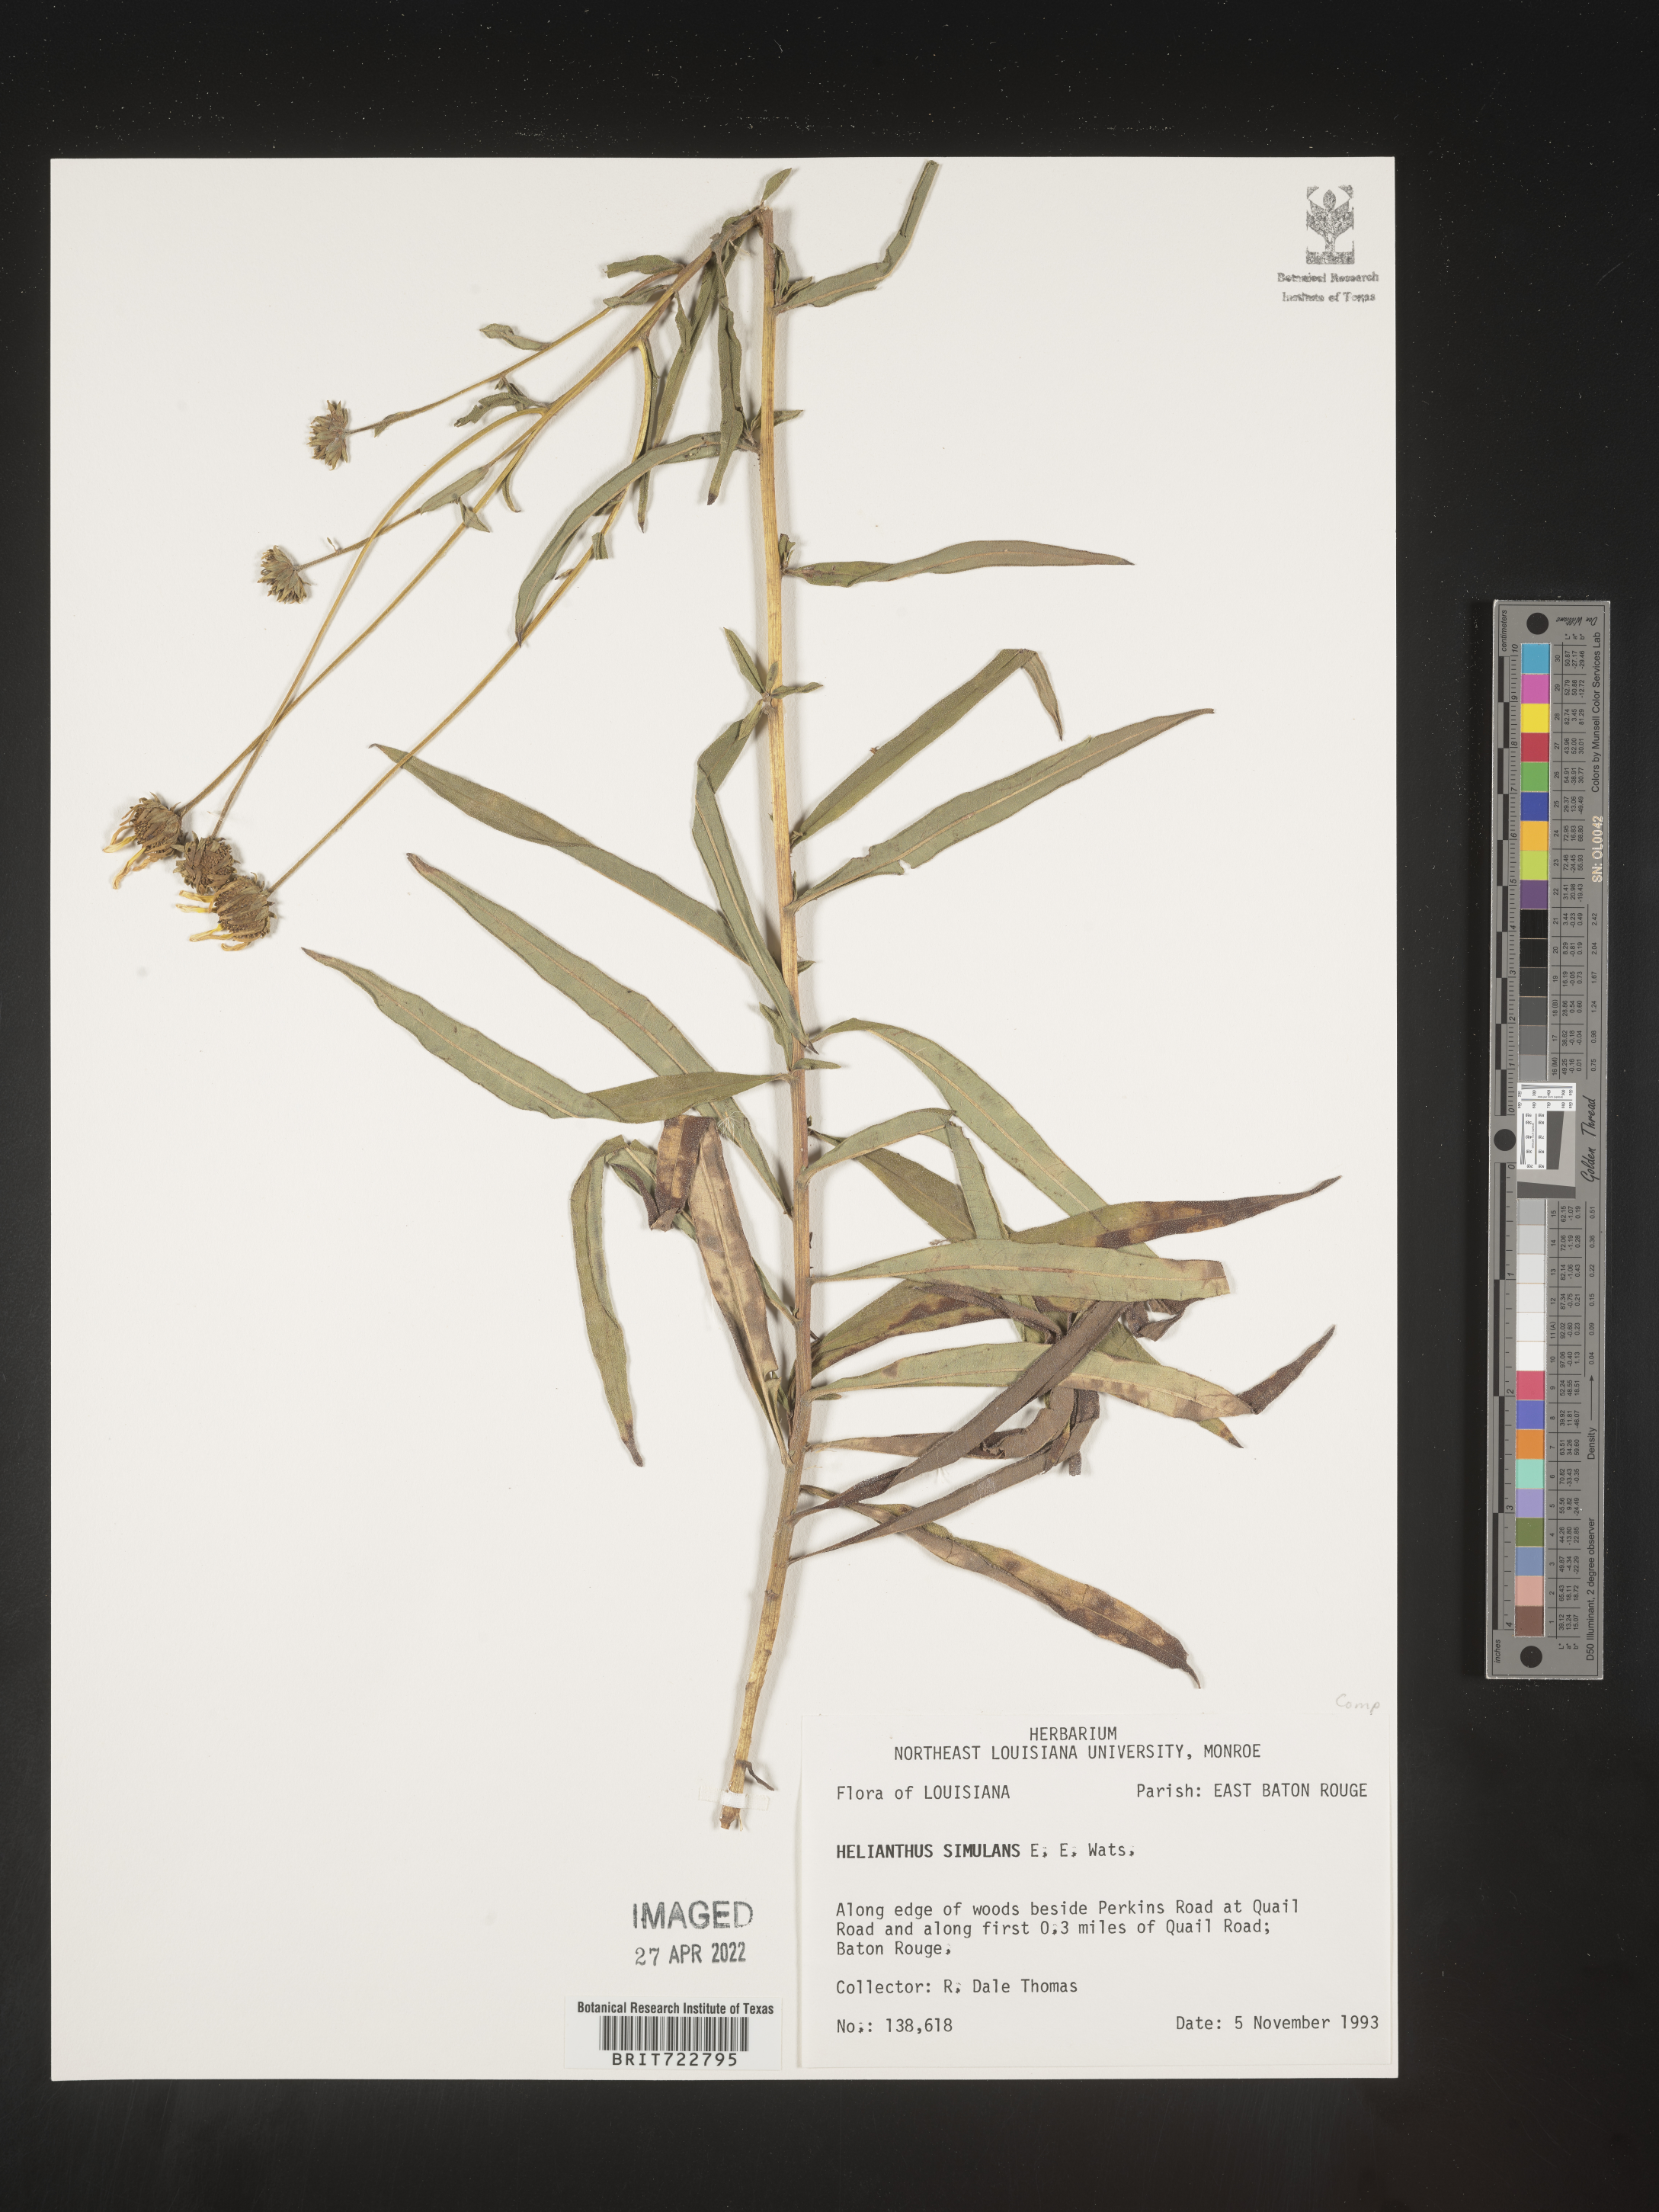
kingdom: Plantae
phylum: Tracheophyta
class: Magnoliopsida
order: Asterales
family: Asteraceae
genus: Helianthus
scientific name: Helianthus simulans
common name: Muck sunflower
